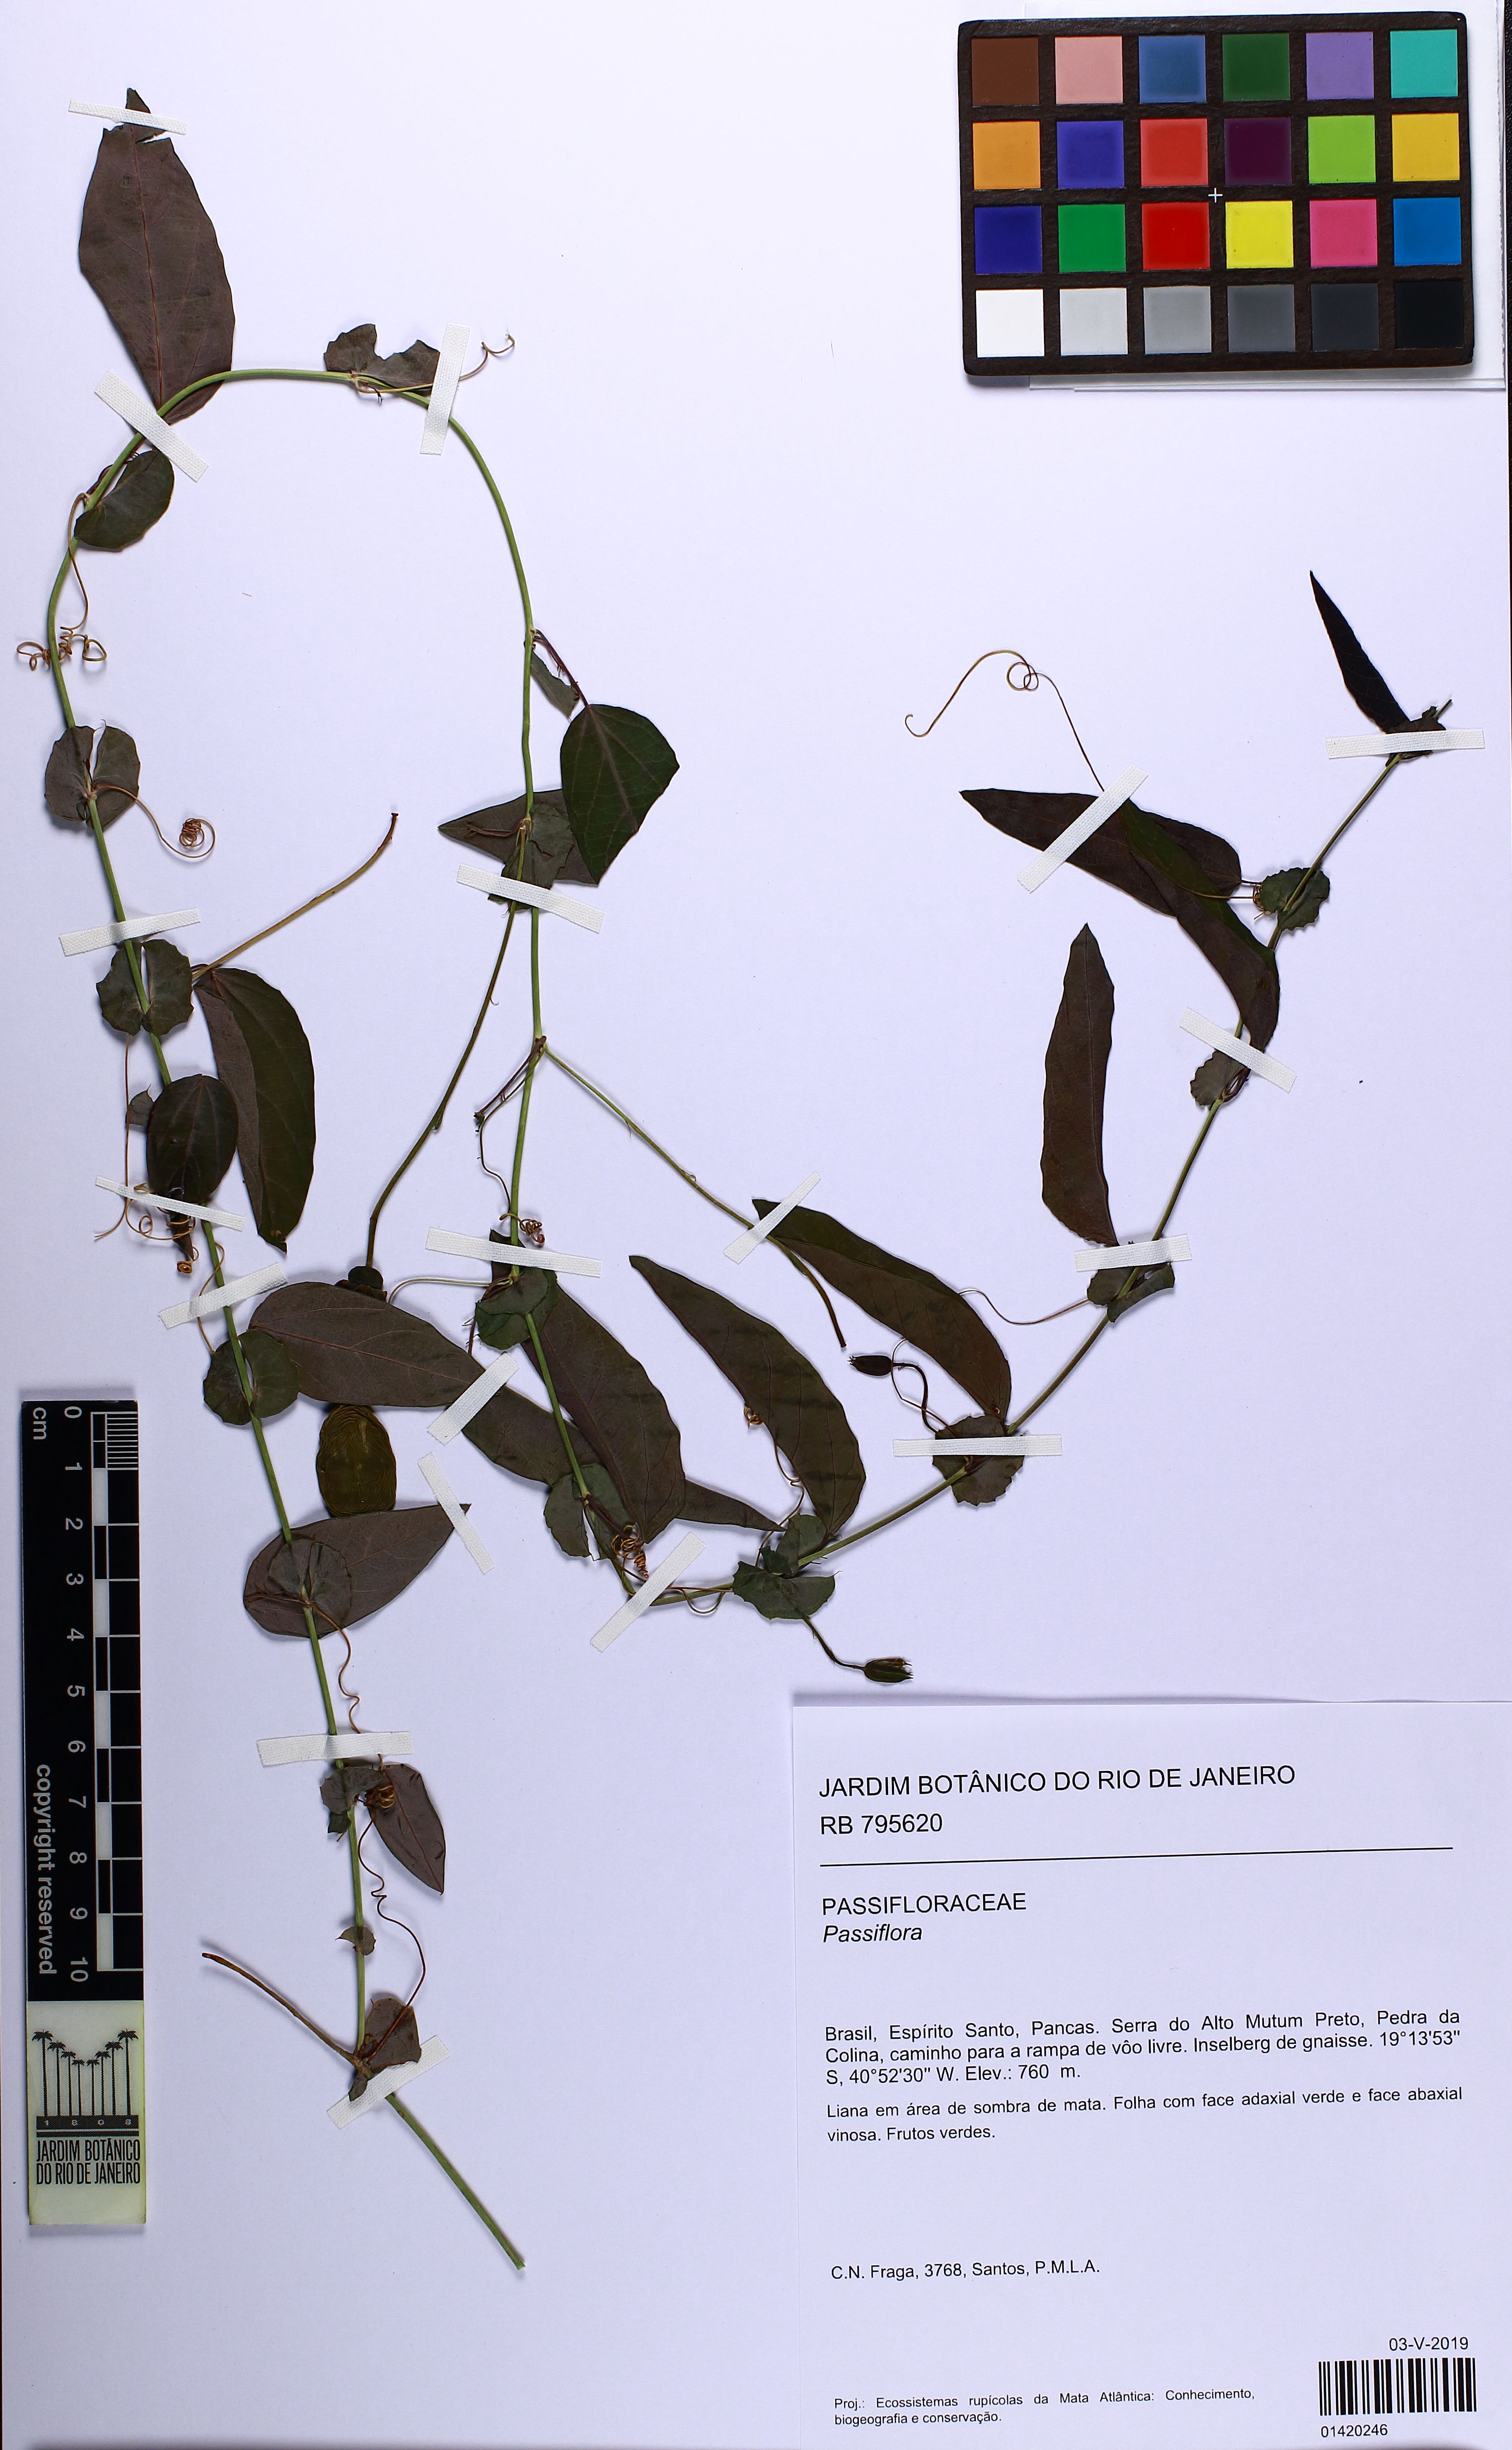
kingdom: Plantae
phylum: Tracheophyta
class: Magnoliopsida
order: Malpighiales
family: Passifloraceae
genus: Passiflora
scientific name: Passiflora
